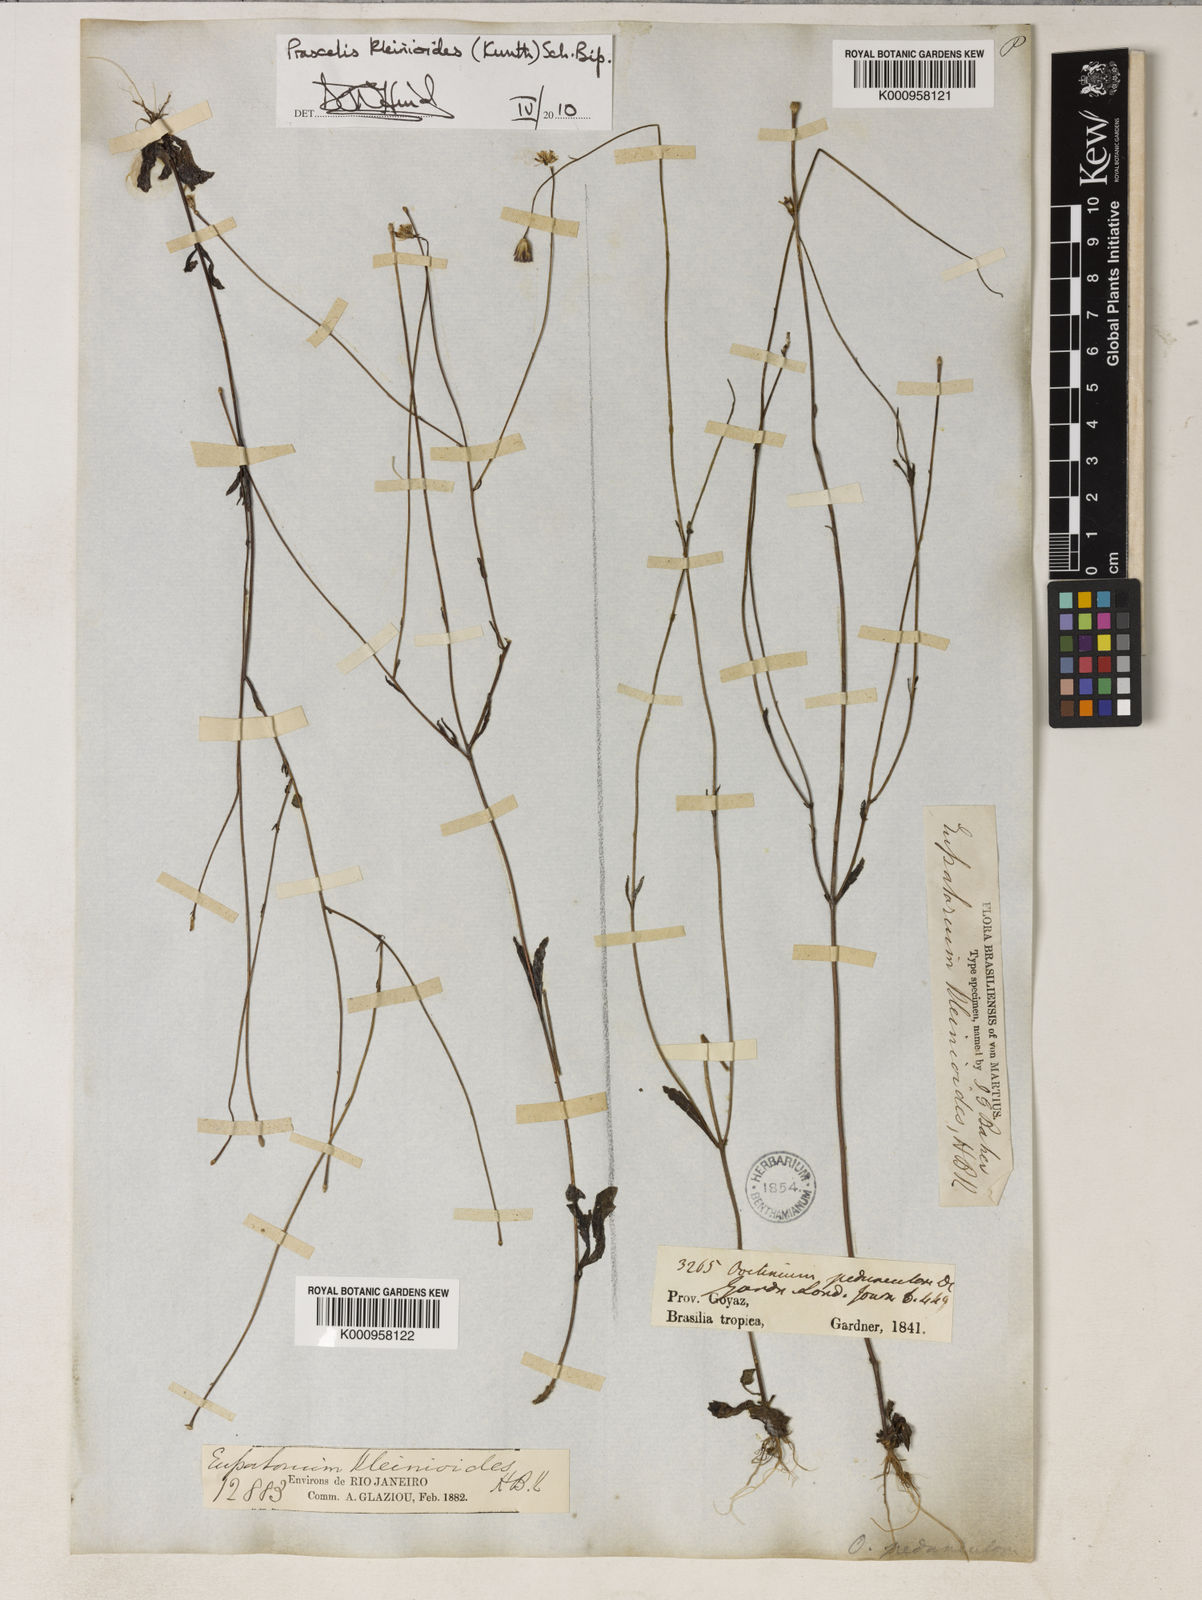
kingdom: Plantae
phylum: Tracheophyta
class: Magnoliopsida
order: Asterales
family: Asteraceae
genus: Praxelis
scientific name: Praxelis kleinioides
